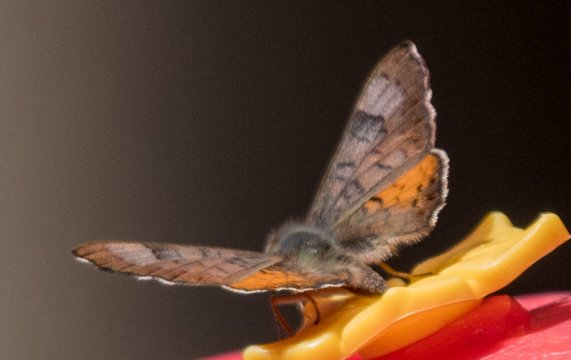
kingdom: Animalia
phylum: Arthropoda
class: Insecta
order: Lepidoptera
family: Lycaenidae
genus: Emesis
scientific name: Emesis zela
